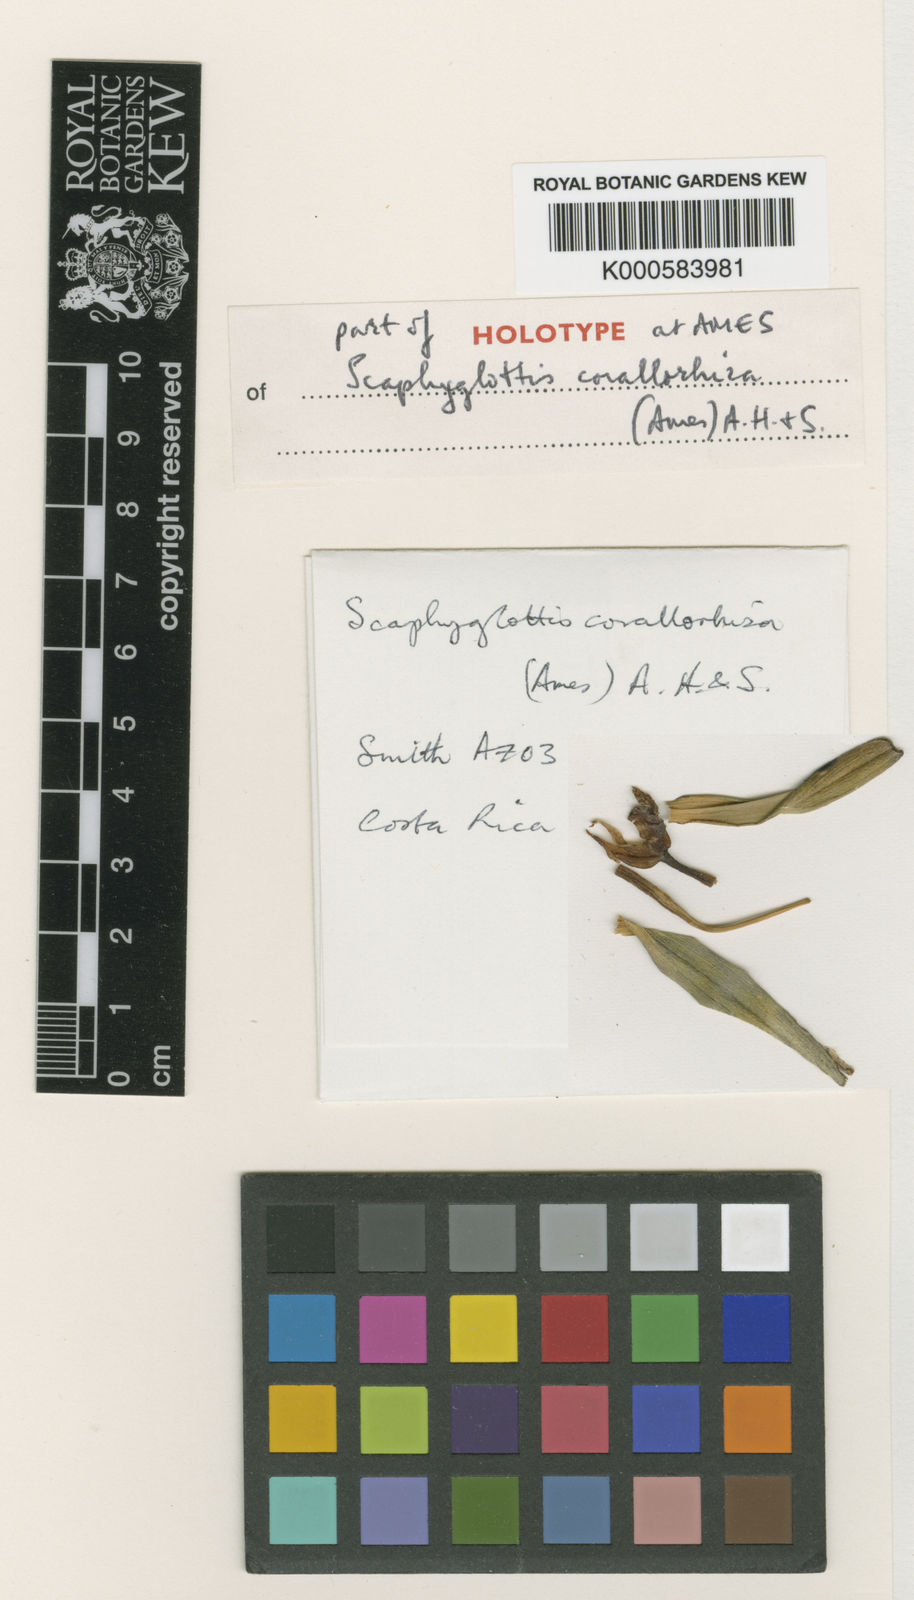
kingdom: Plantae
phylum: Tracheophyta
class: Liliopsida
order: Asparagales
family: Orchidaceae
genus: Scaphyglottis
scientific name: Scaphyglottis
